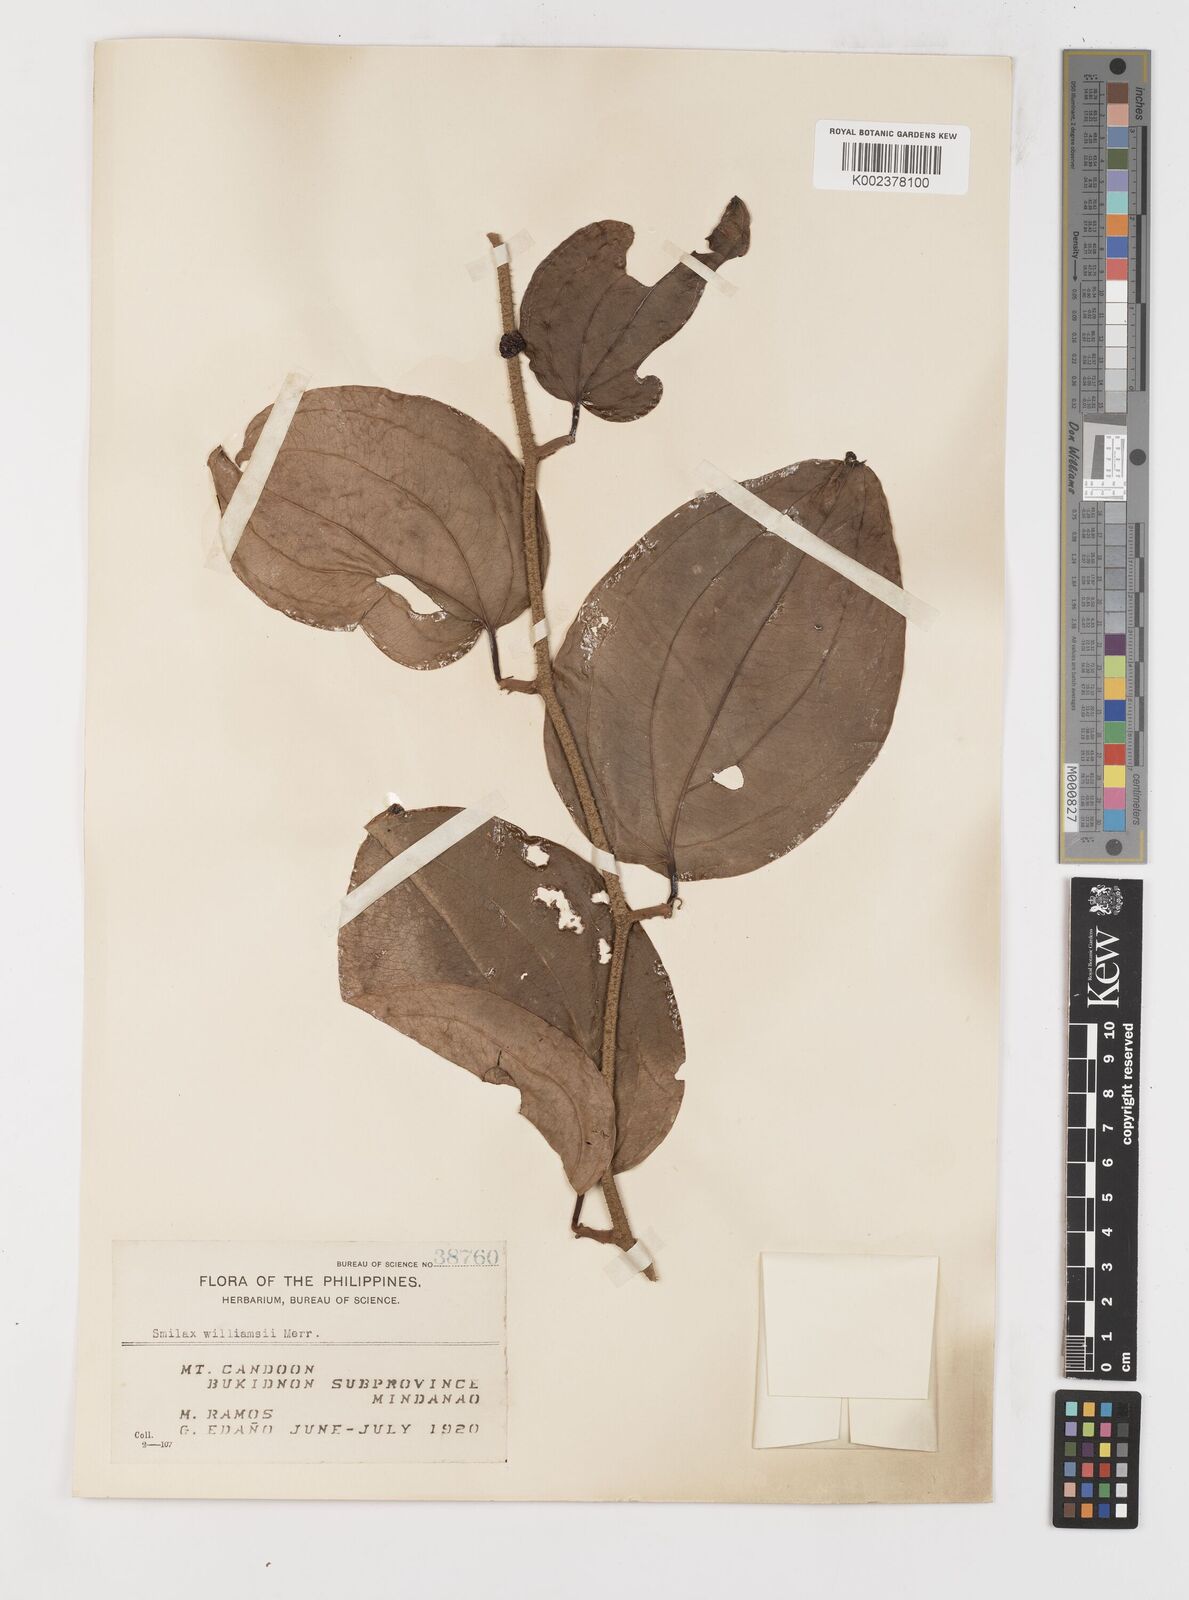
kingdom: Plantae
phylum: Tracheophyta
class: Liliopsida
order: Liliales
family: Smilacaceae
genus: Smilax
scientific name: Smilax williamsii
